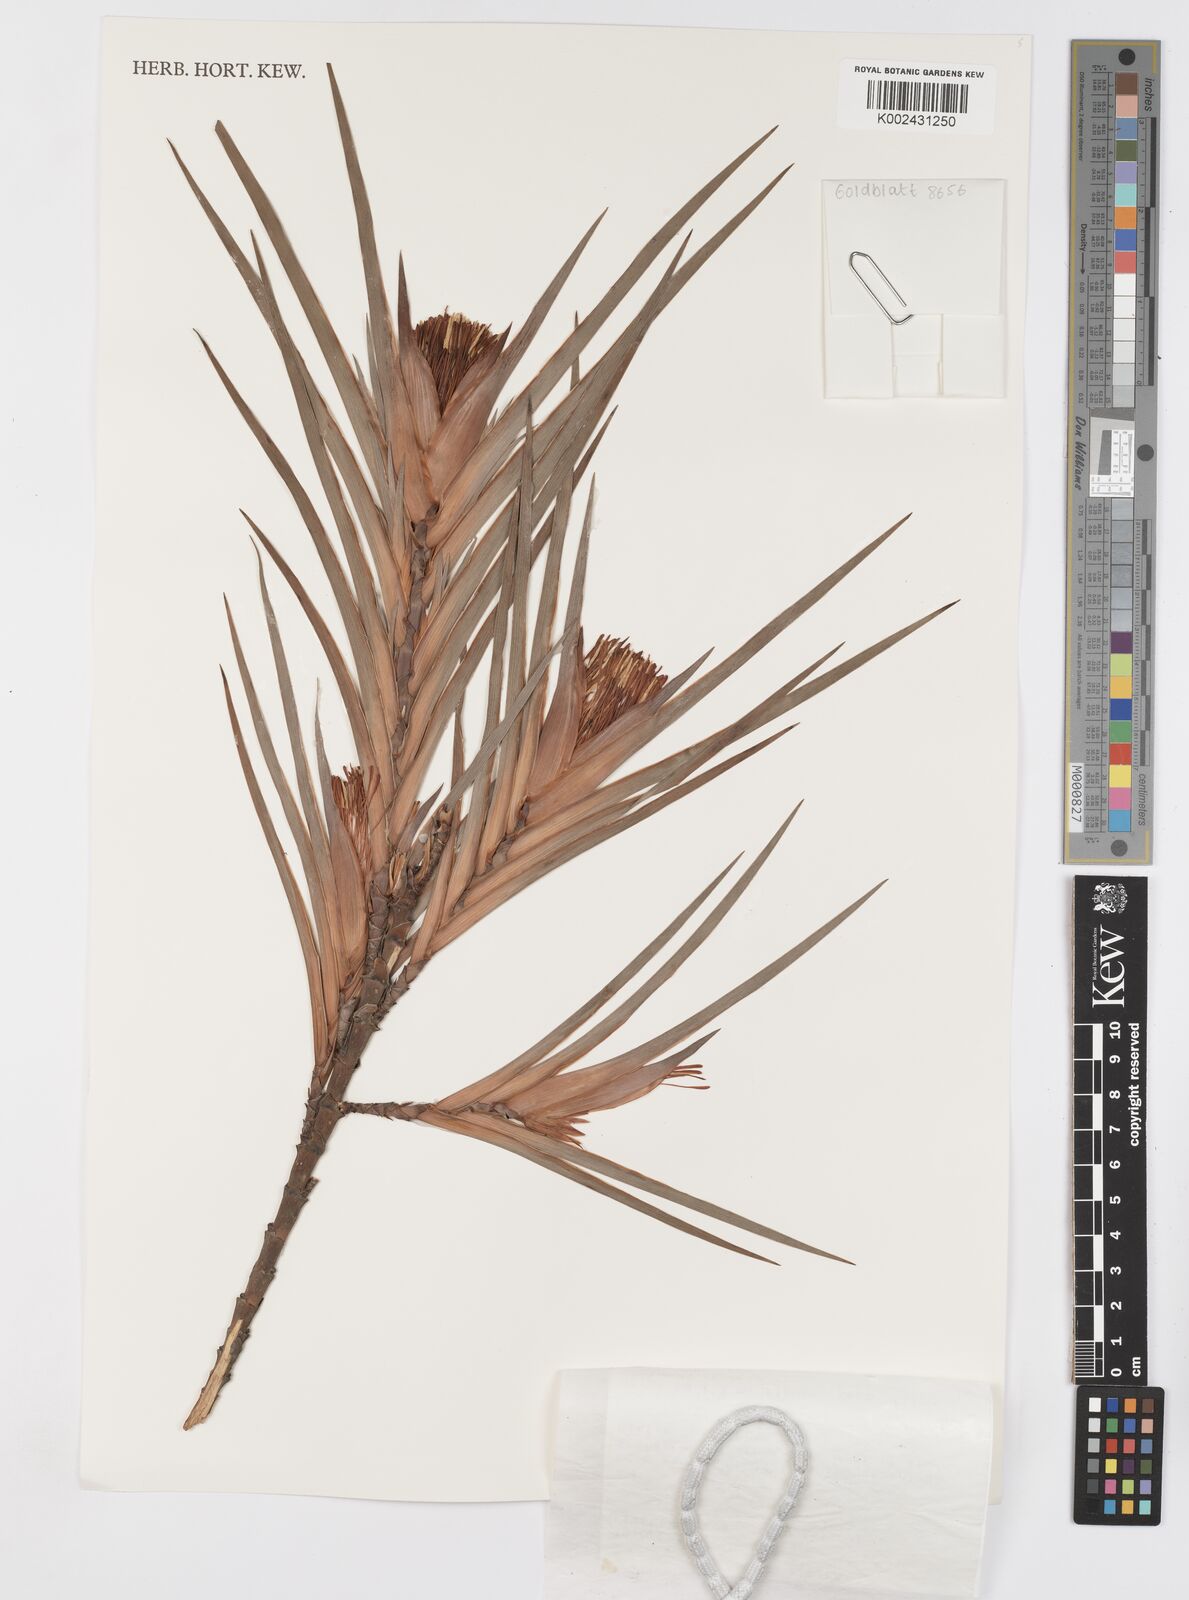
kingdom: Plantae
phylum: Tracheophyta
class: Liliopsida
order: Asparagales
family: Iridaceae
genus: Klattia
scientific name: Klattia flava
